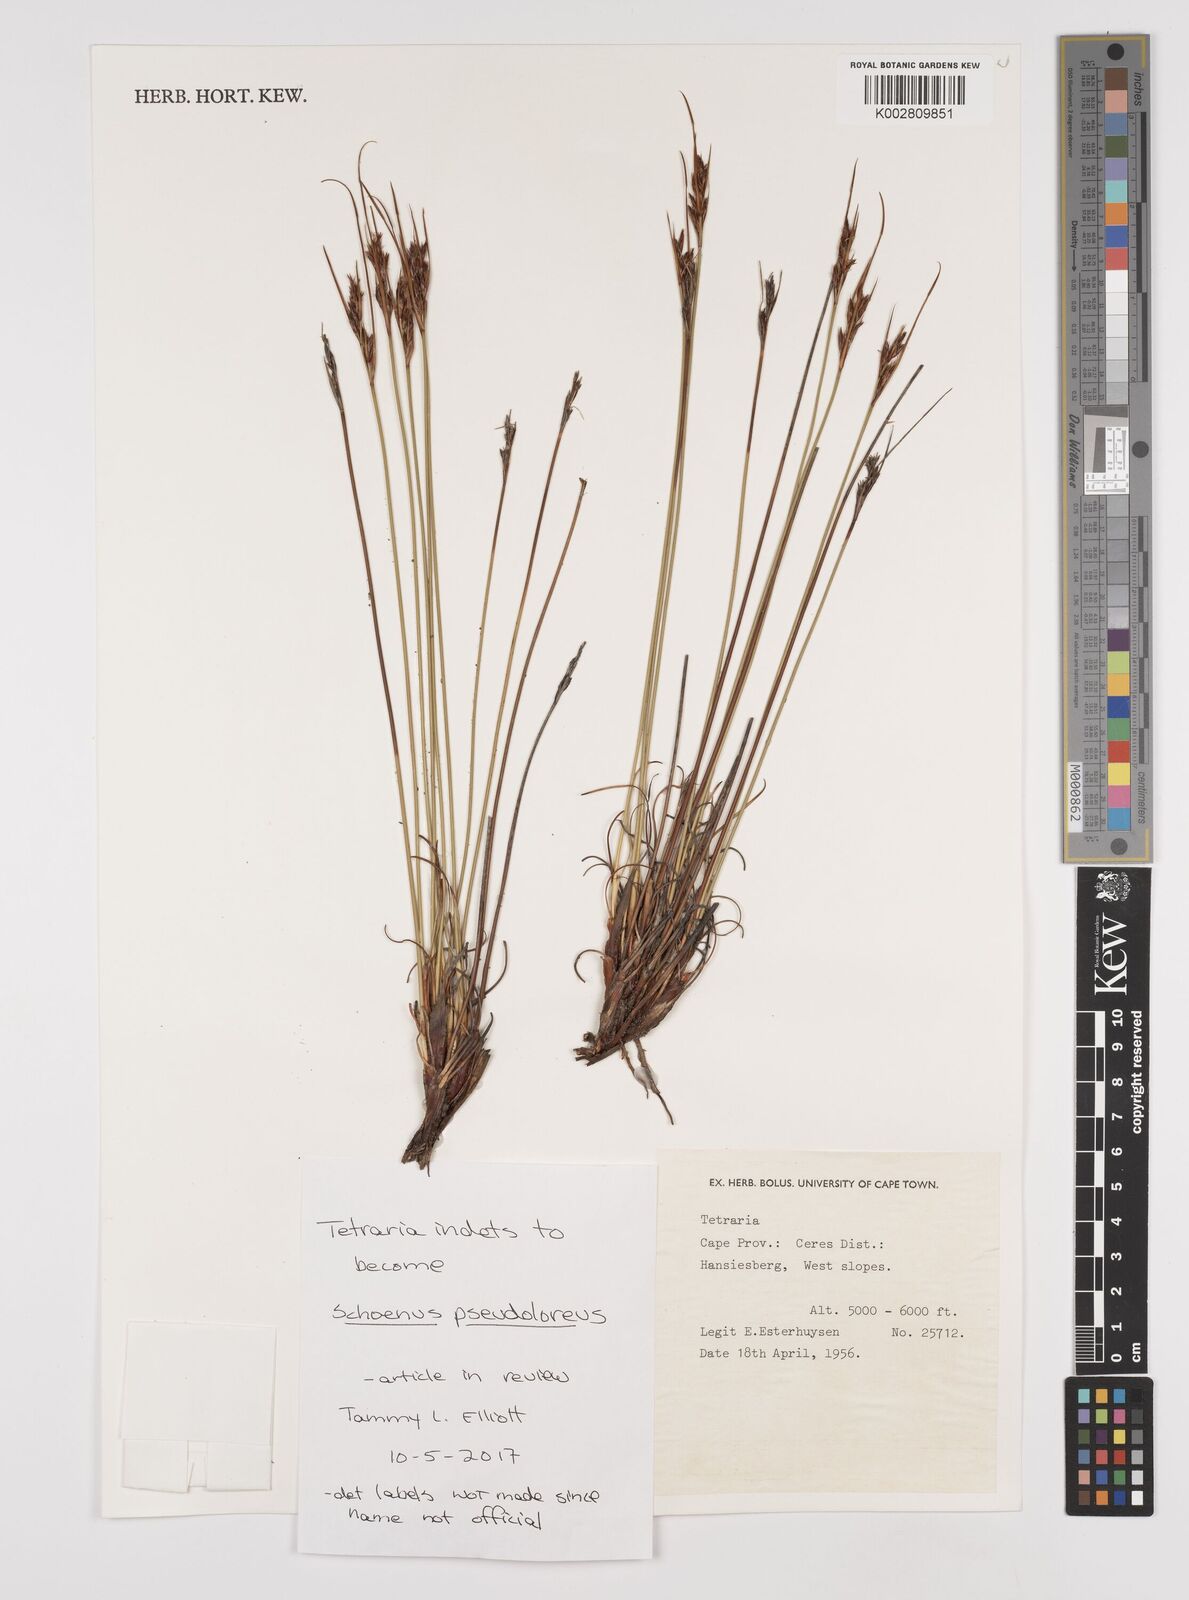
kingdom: Plantae
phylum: Tracheophyta
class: Liliopsida
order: Poales
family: Cyperaceae
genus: Schoenus
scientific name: Schoenus pseudoloreus
